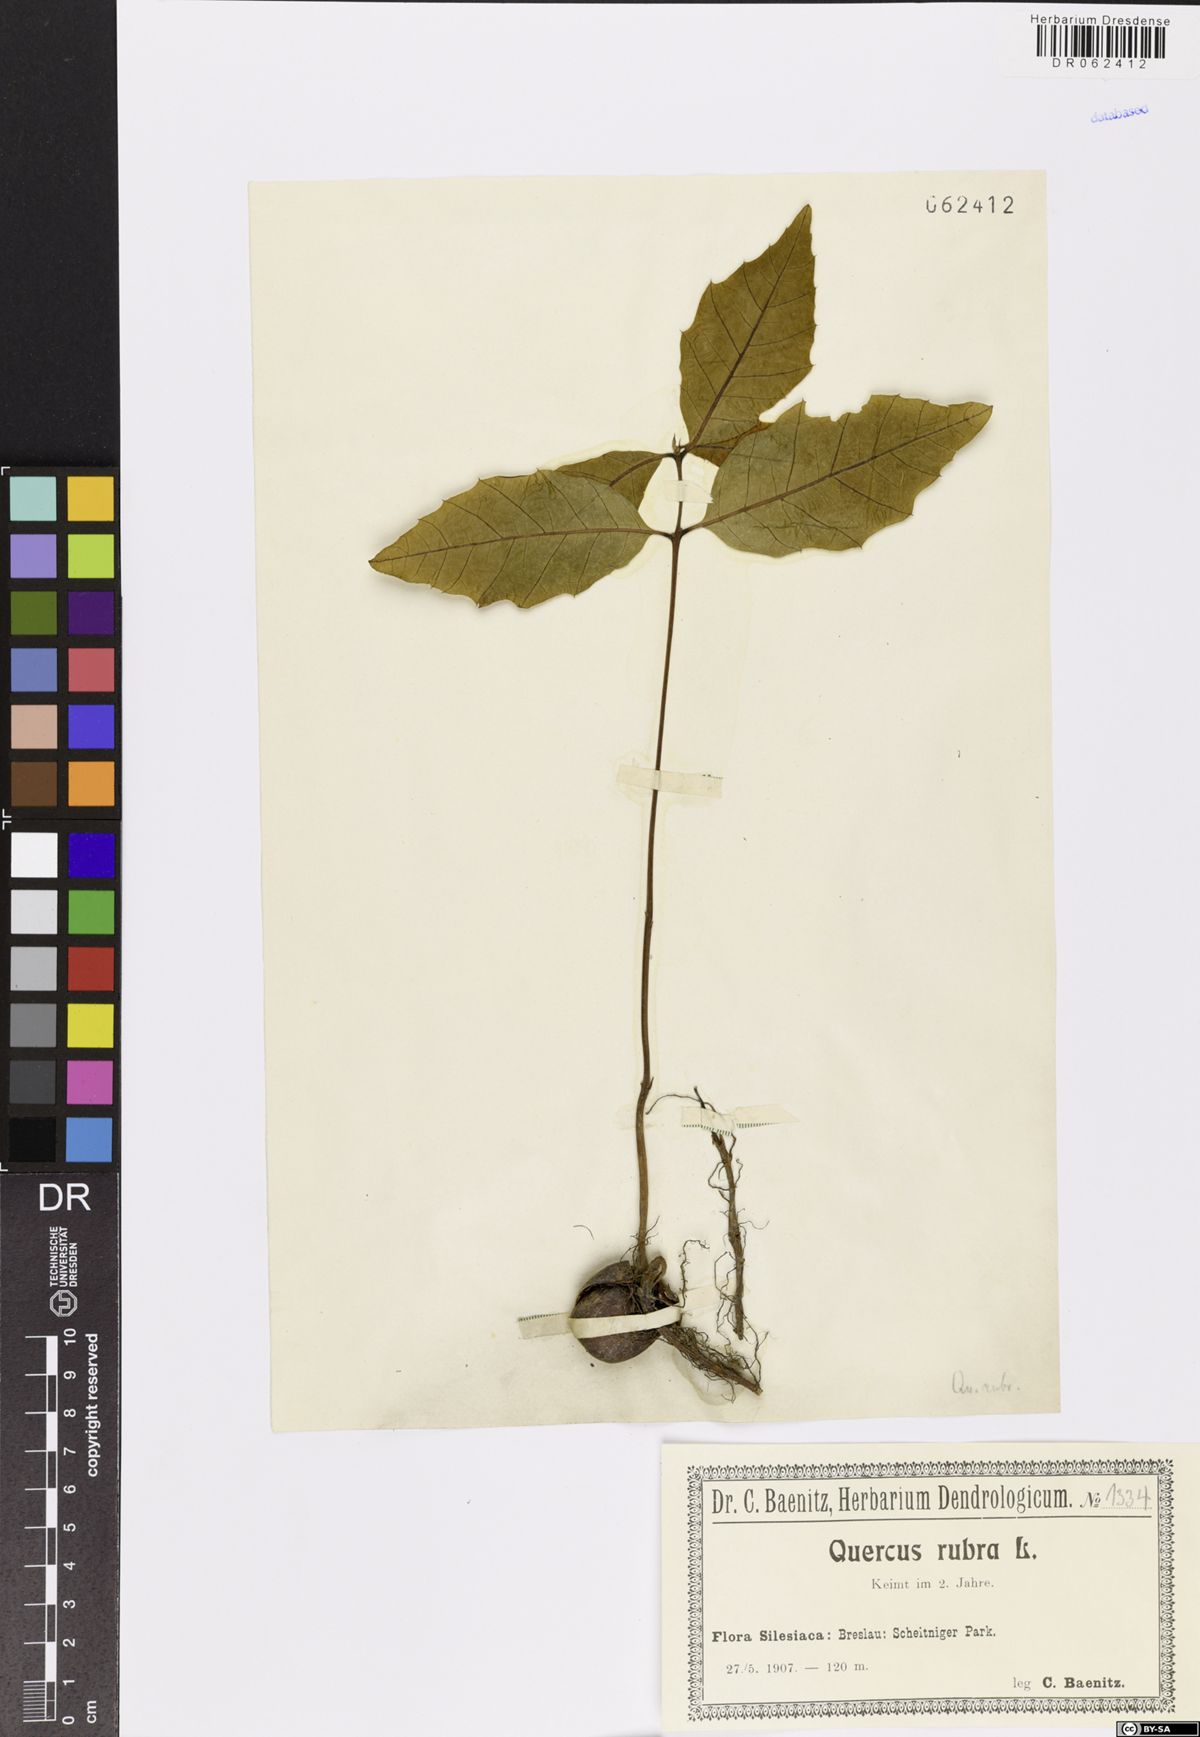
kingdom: Plantae
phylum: Tracheophyta
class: Magnoliopsida
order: Fagales
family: Fagaceae
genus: Quercus
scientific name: Quercus rubra
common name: Red oak
